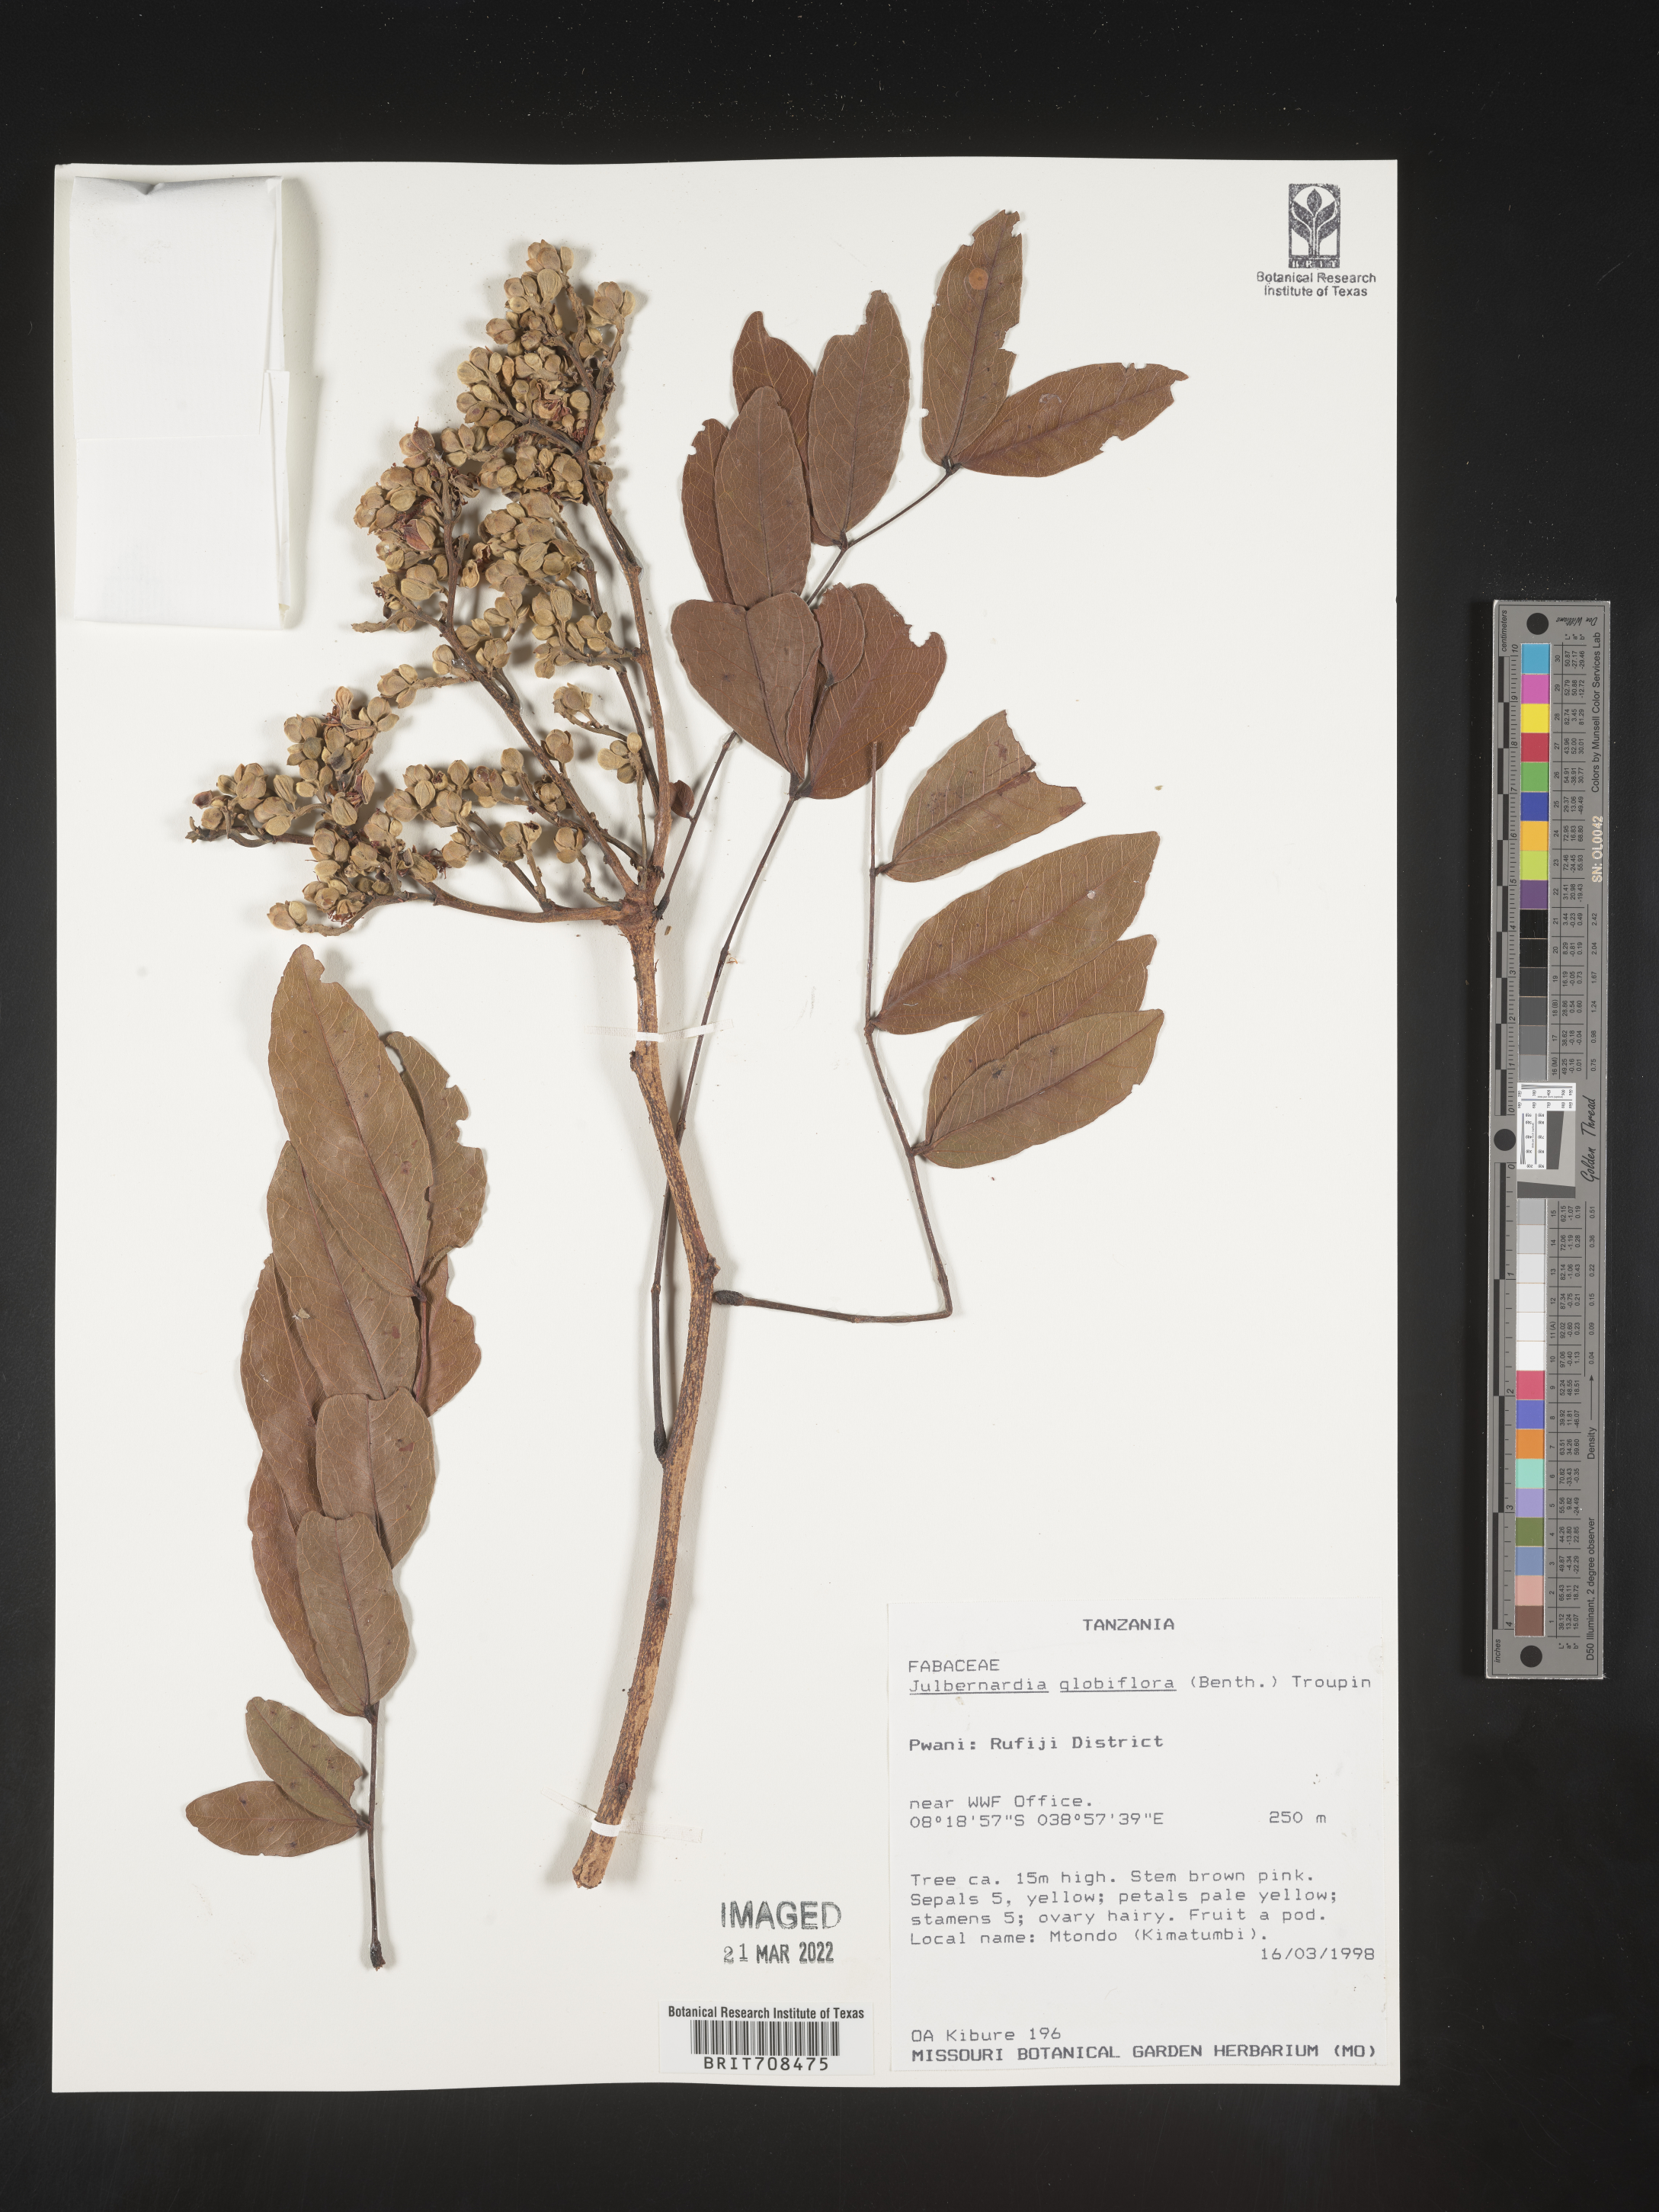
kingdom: Plantae
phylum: Tracheophyta
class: Magnoliopsida
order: Fabales
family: Fabaceae
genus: Julbernardia
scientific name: Julbernardia
